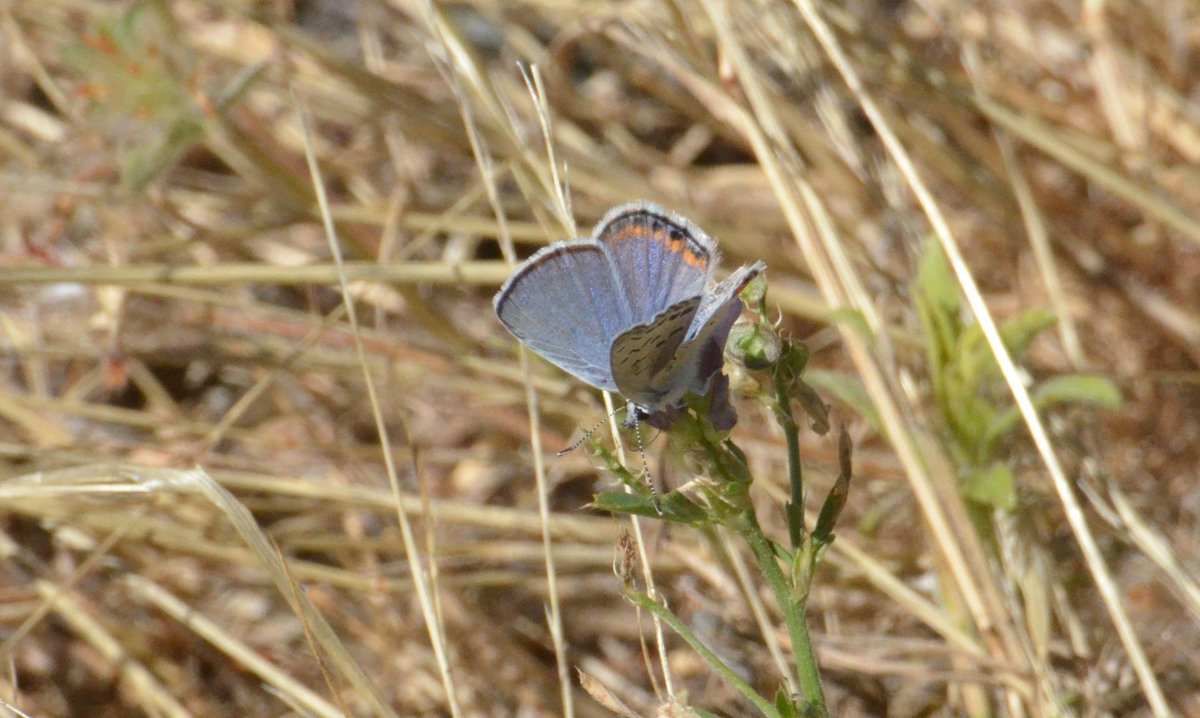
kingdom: Animalia
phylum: Arthropoda
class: Insecta
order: Lepidoptera
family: Lycaenidae
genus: Plebejus
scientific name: Plebejus acmon
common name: Acmon Blue
